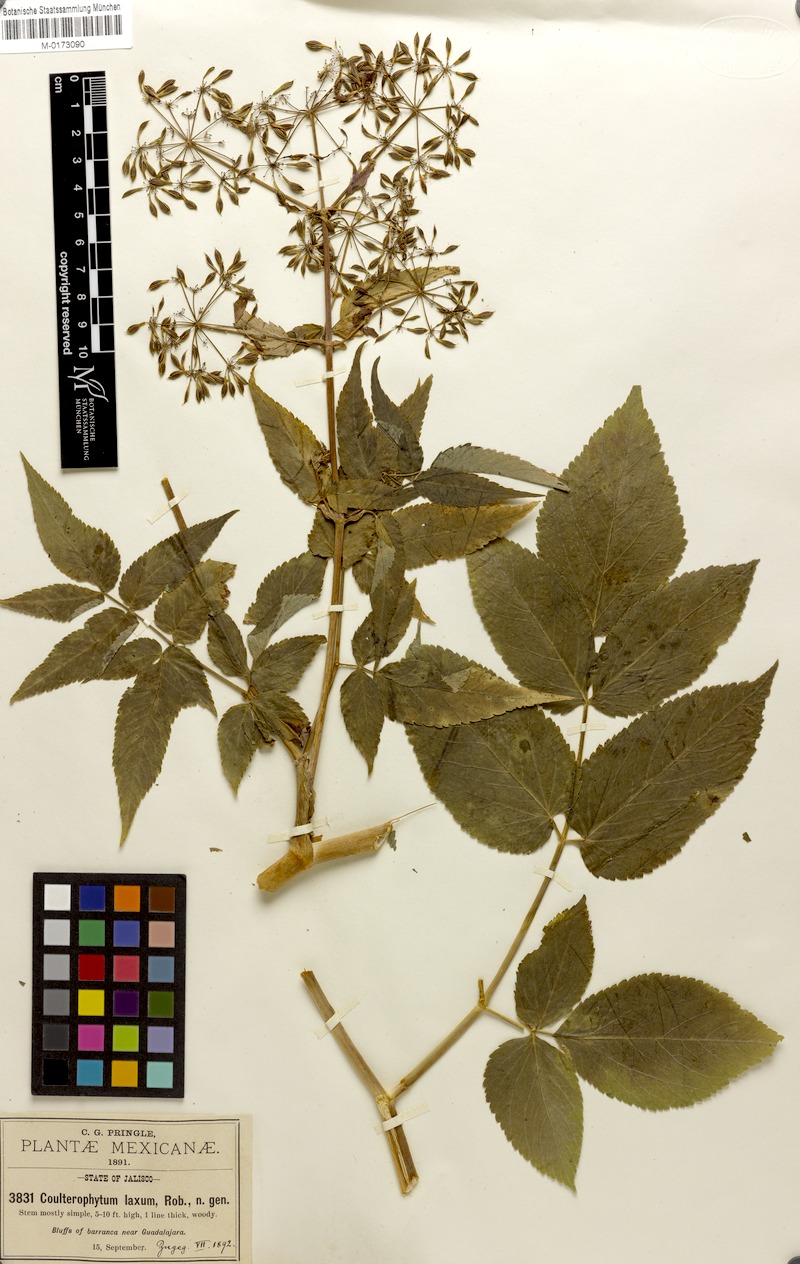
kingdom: Plantae
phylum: Tracheophyta
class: Magnoliopsida
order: Apiales
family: Apiaceae
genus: Coulterophytum
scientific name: Coulterophytum laxum
